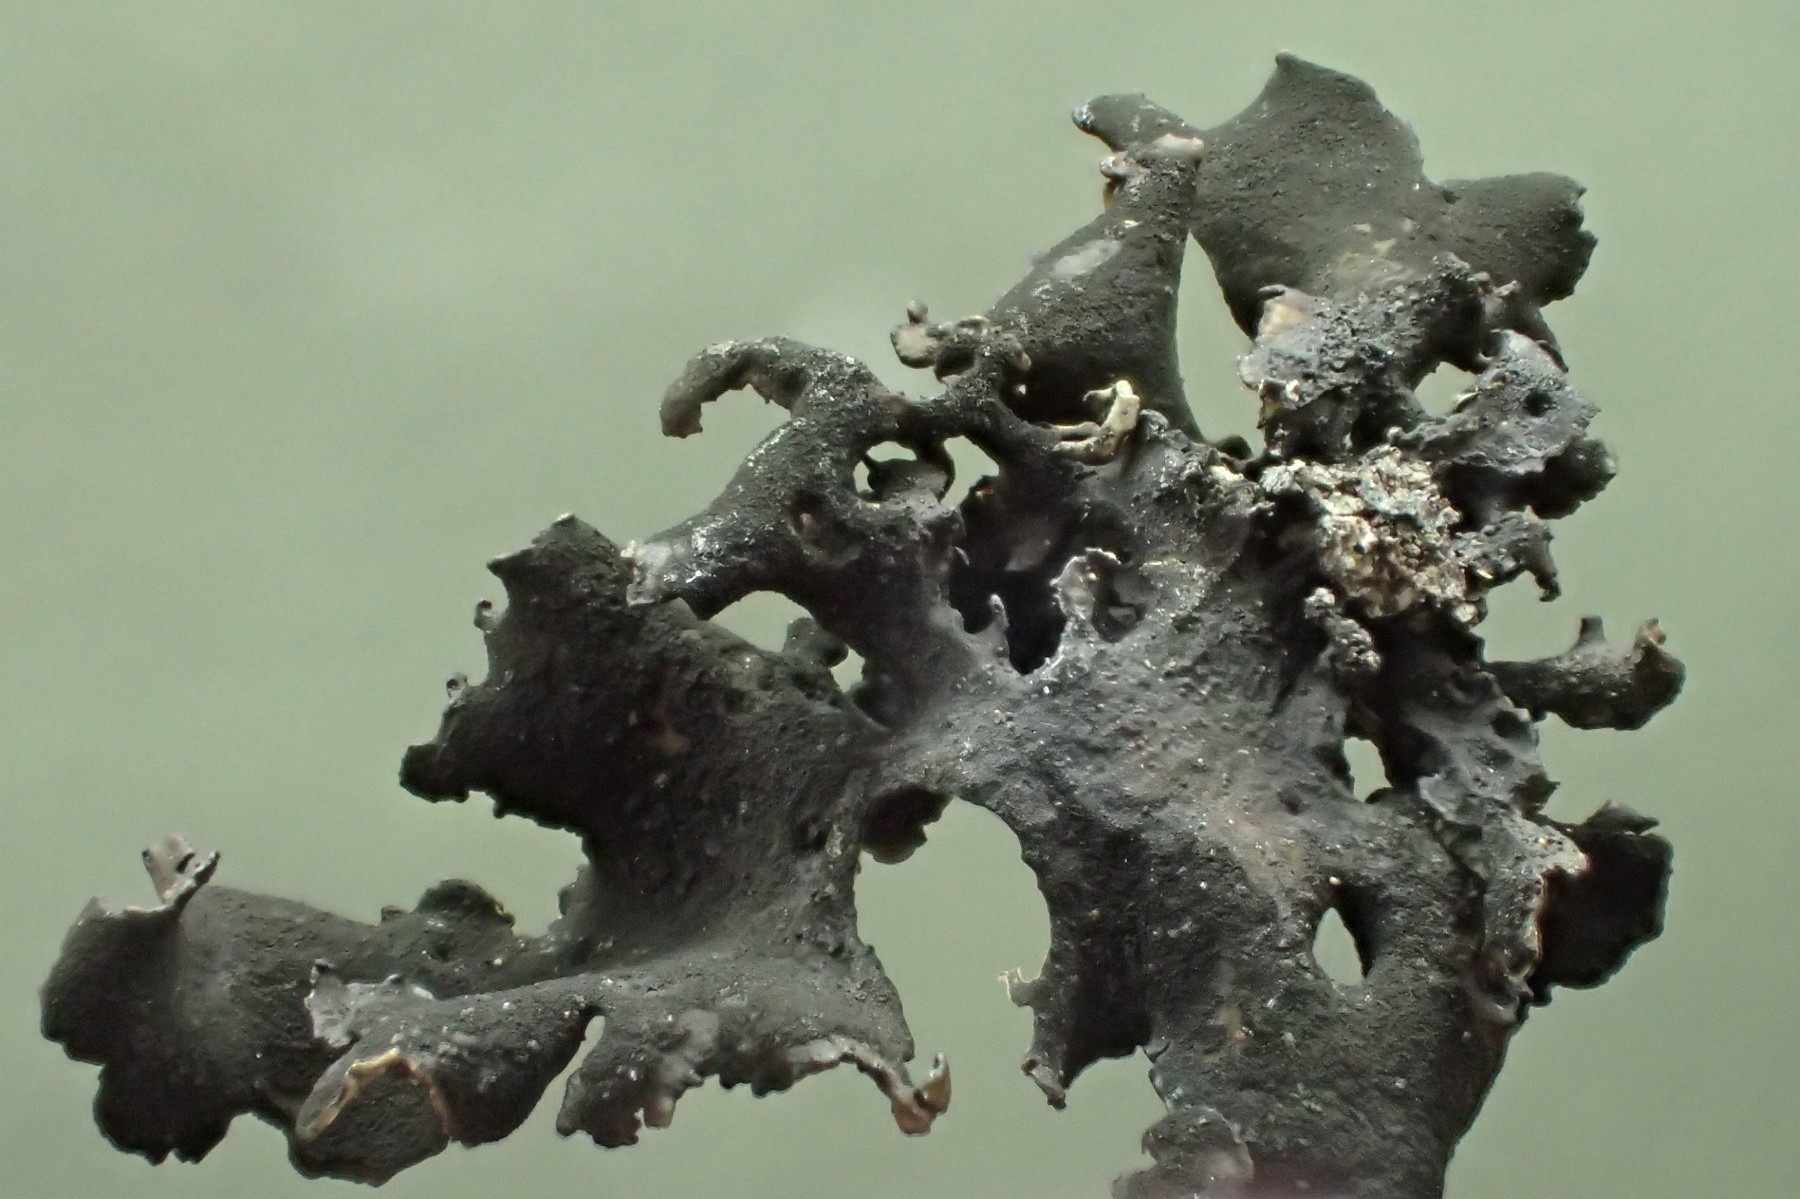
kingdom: Fungi
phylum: Ascomycota
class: Lecanoromycetes
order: Umbilicariales
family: Umbilicariaceae
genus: Umbilicaria
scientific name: Umbilicaria polyphylla
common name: glat navlelav
